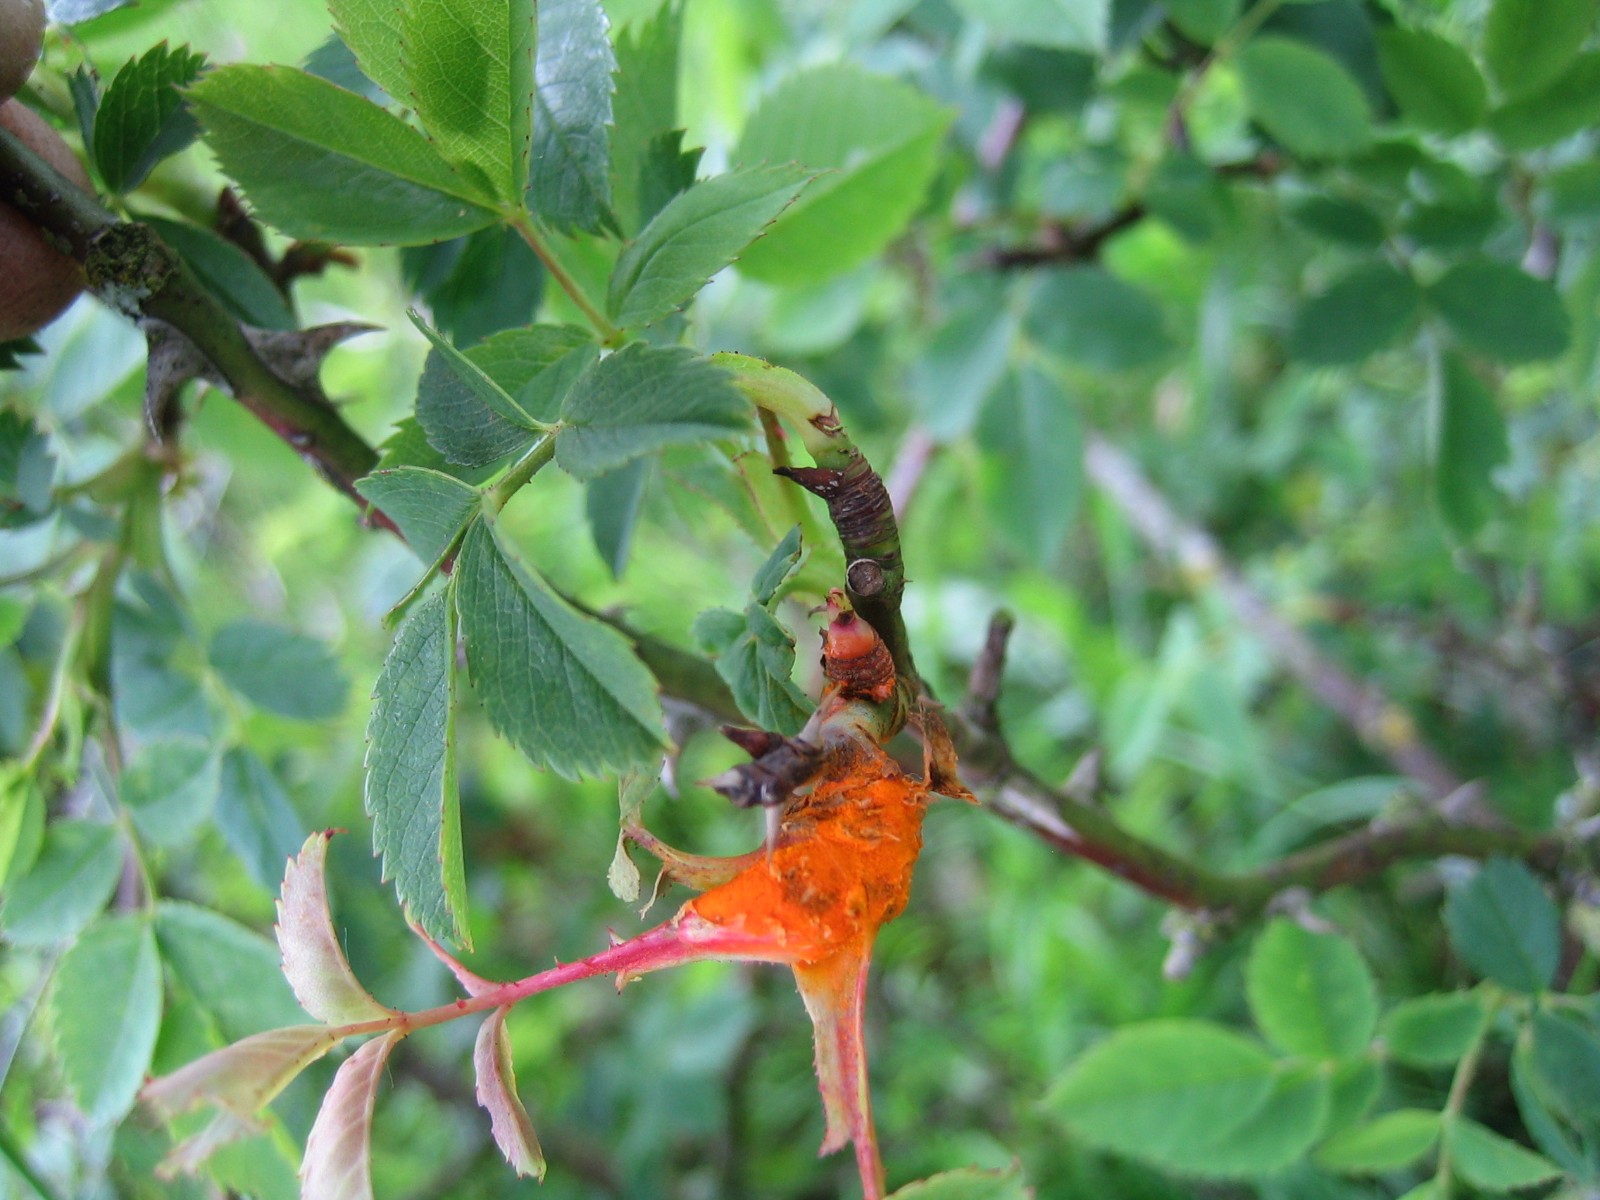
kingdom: Fungi
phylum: Basidiomycota
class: Pucciniomycetes
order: Pucciniales
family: Phragmidiaceae
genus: Phragmidium
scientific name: Phragmidium
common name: flercellerust
